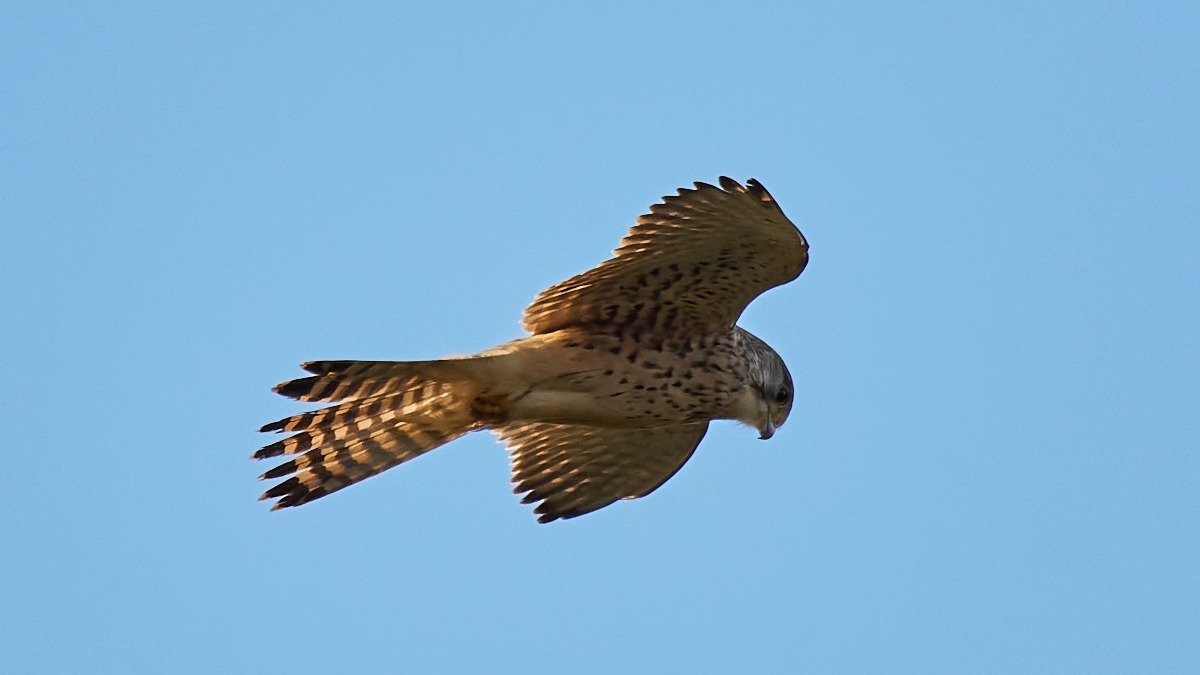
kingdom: Animalia
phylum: Chordata
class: Aves
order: Falconiformes
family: Falconidae
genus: Falco
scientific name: Falco tinnunculus
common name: Tårnfalk
